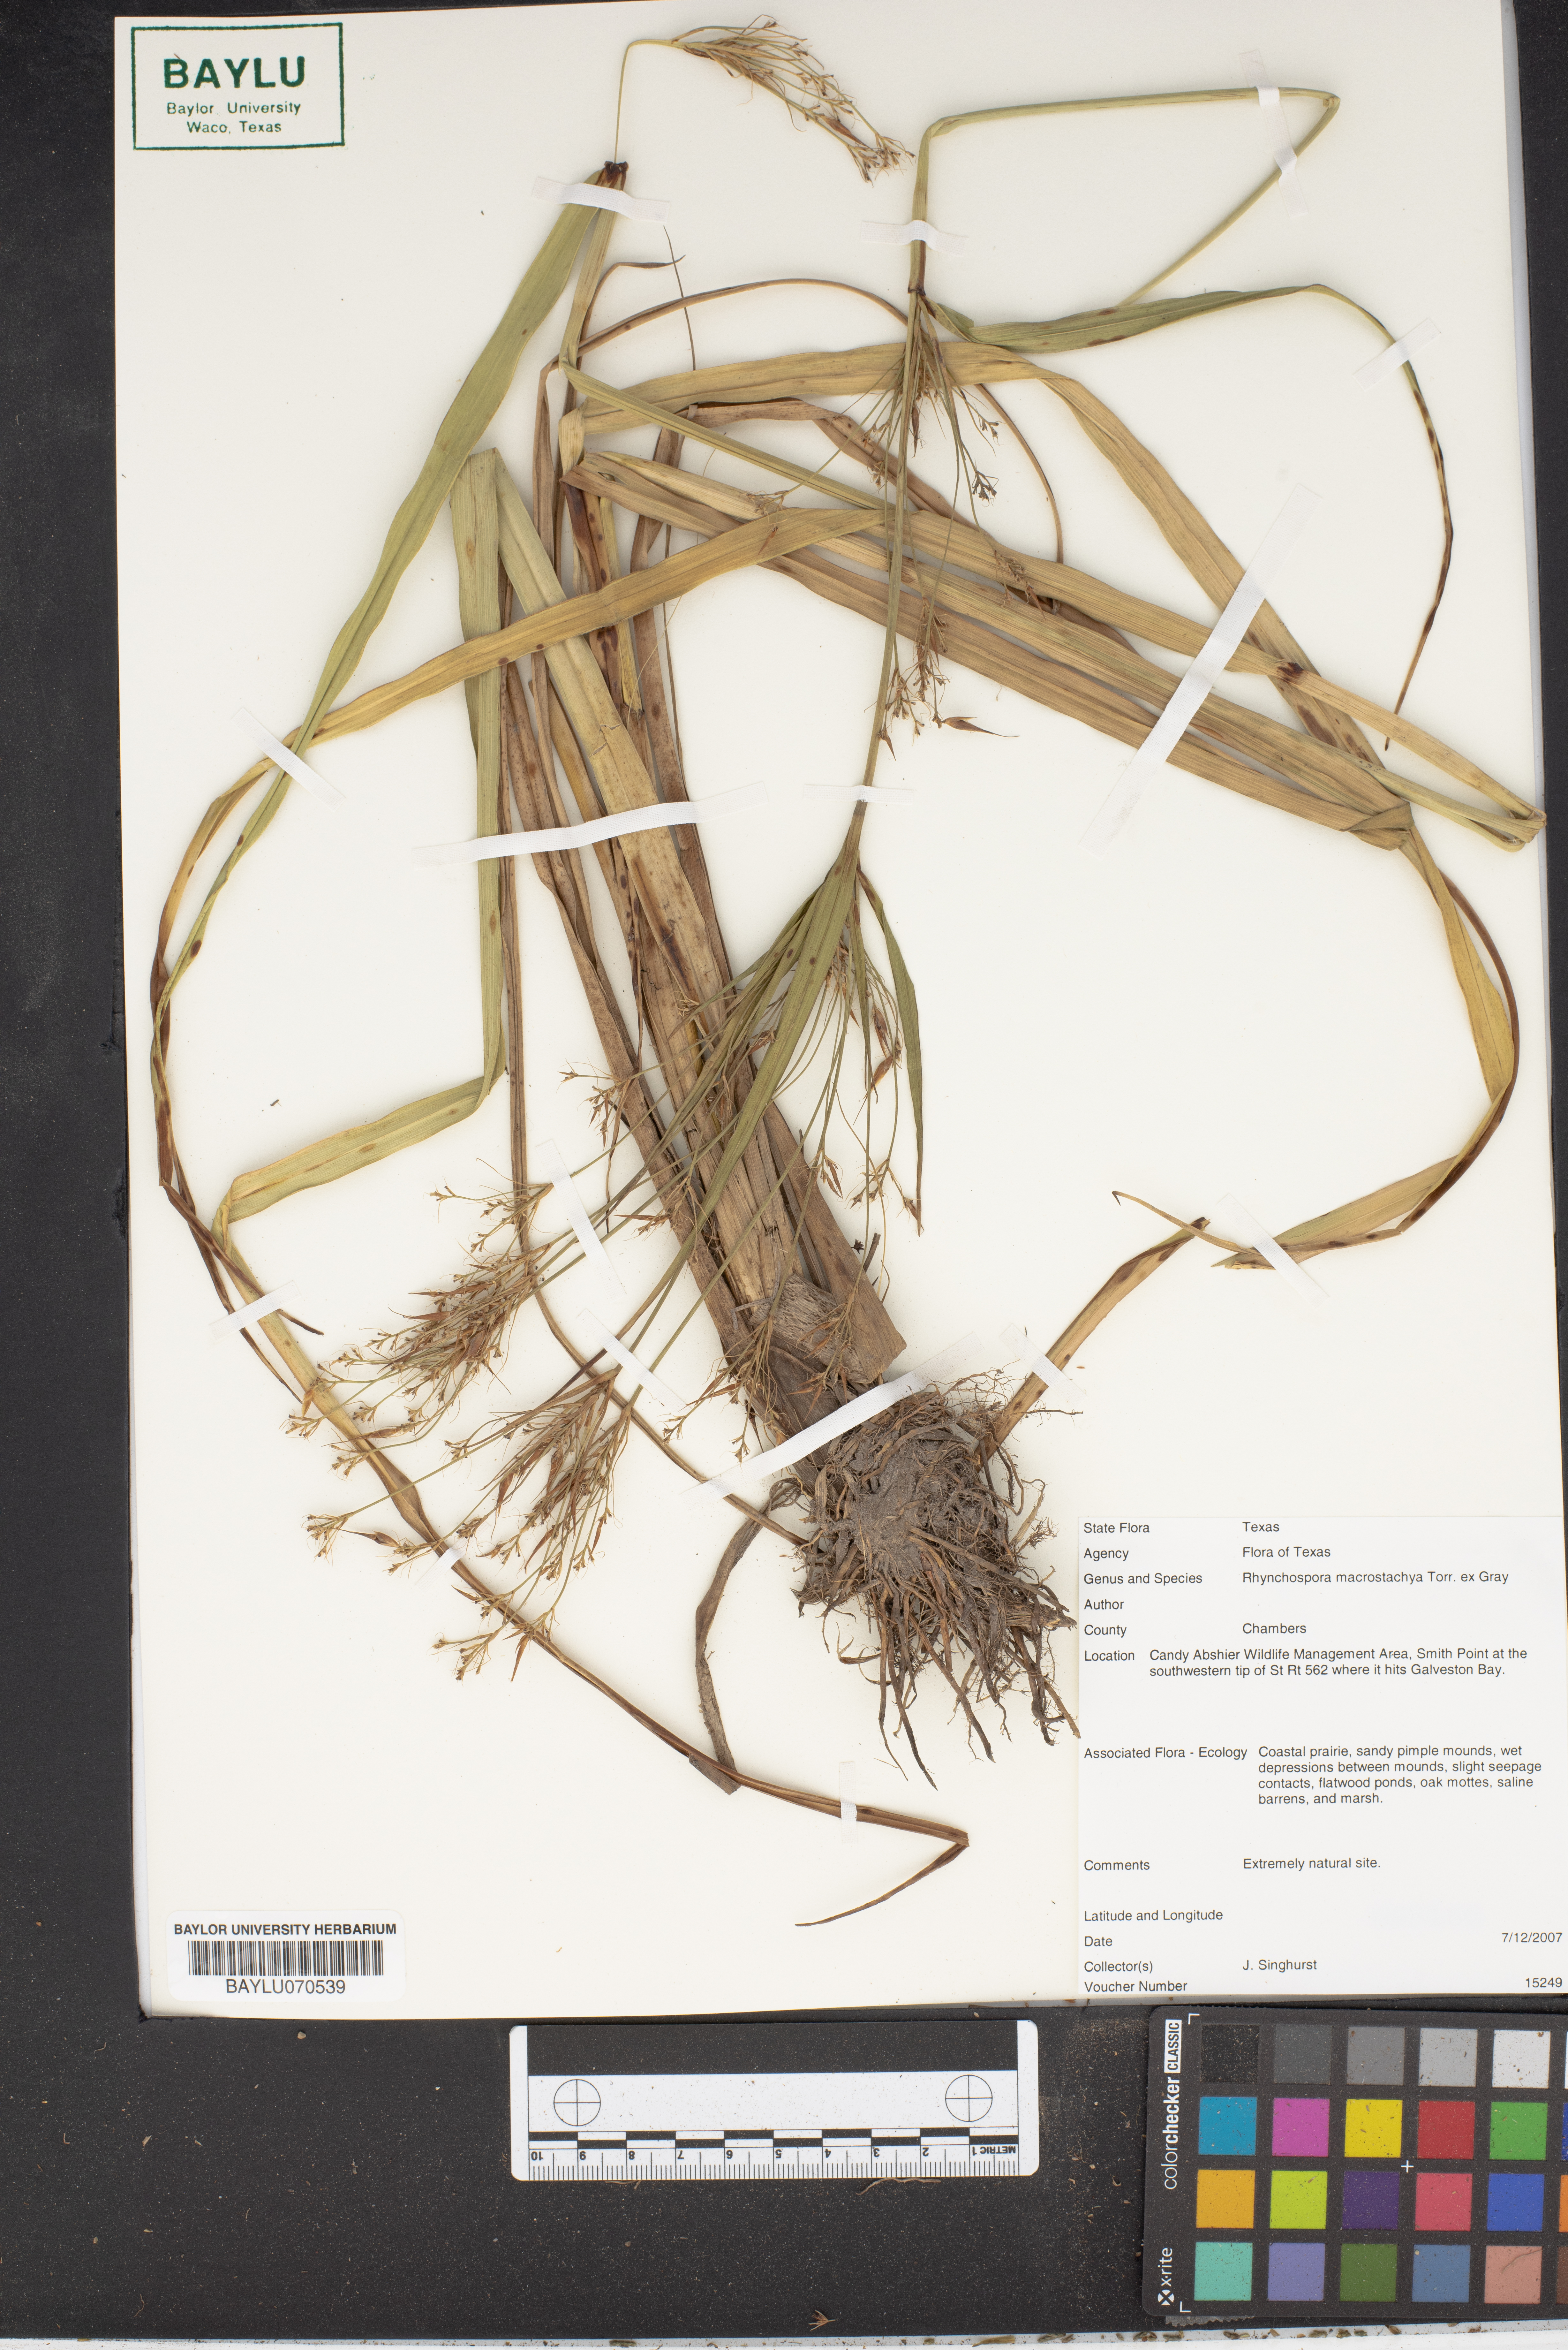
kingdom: Plantae
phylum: Tracheophyta
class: Liliopsida
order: Poales
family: Cyperaceae
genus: Rhynchospora
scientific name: Rhynchospora macrostachya
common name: Tall beakrush
